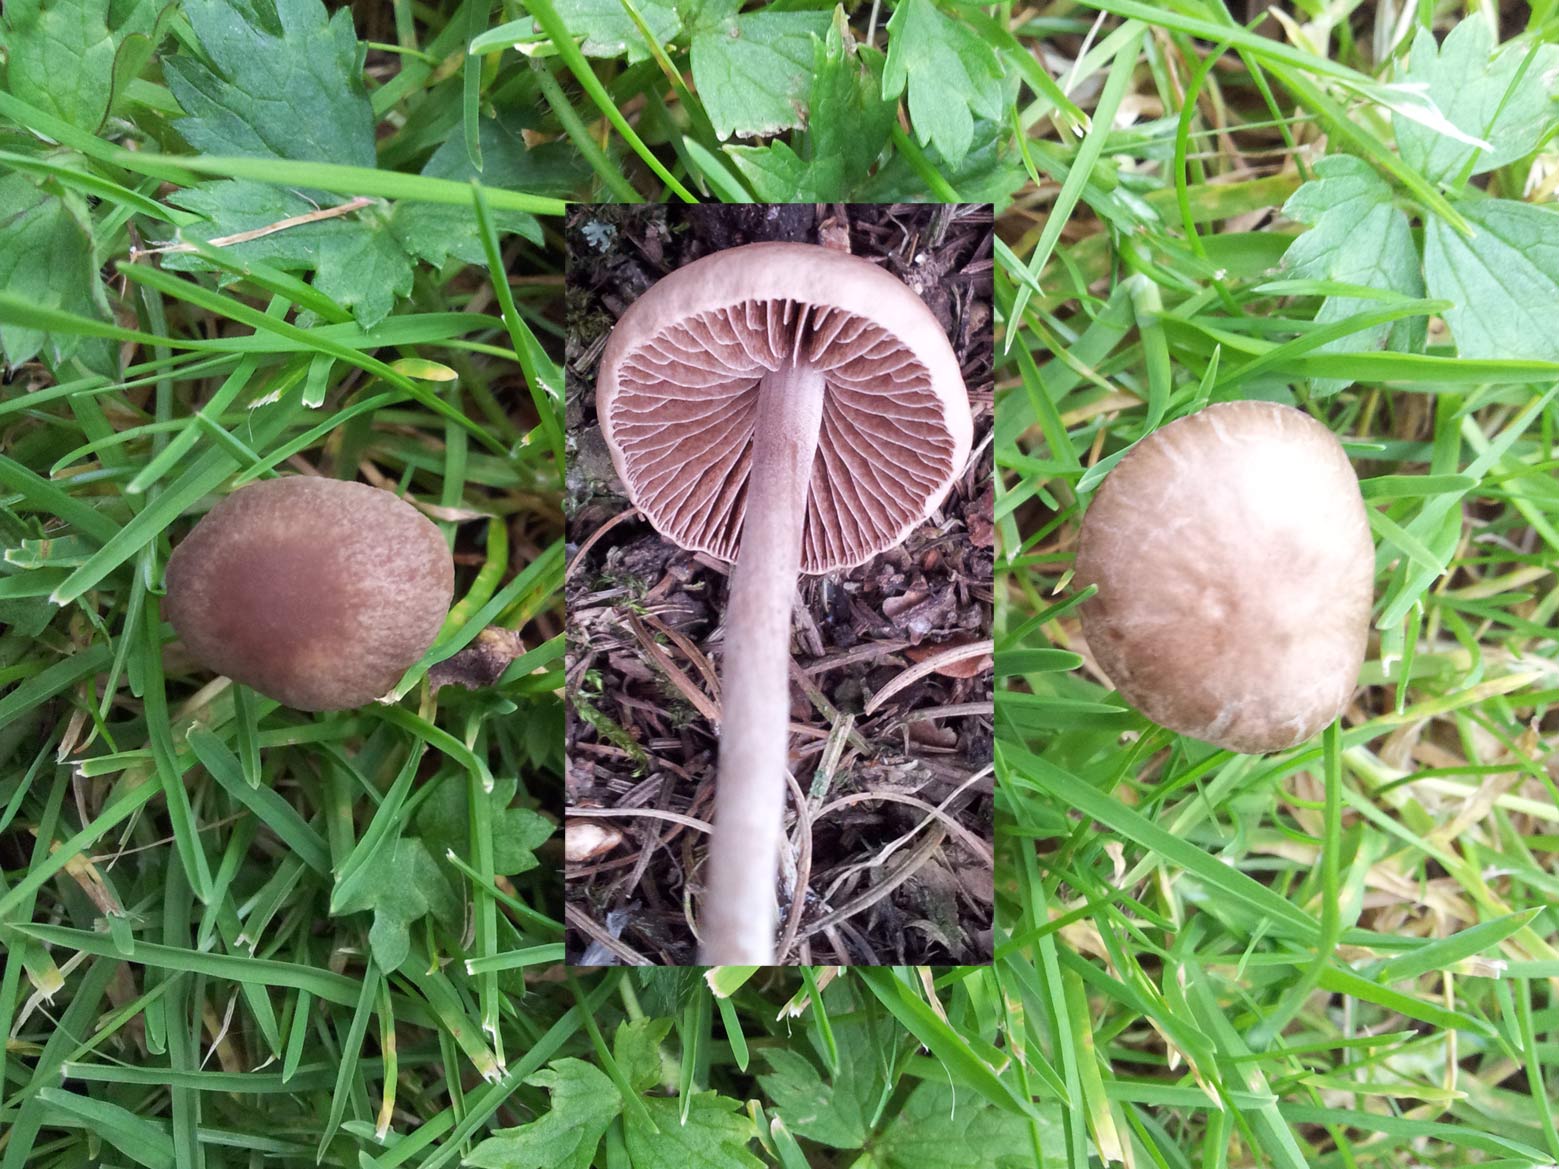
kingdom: Fungi
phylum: Basidiomycota
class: Agaricomycetes
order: Agaricales
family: Bolbitiaceae
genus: Panaeolina
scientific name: Panaeolina foenisecii
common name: høslætsvamp
